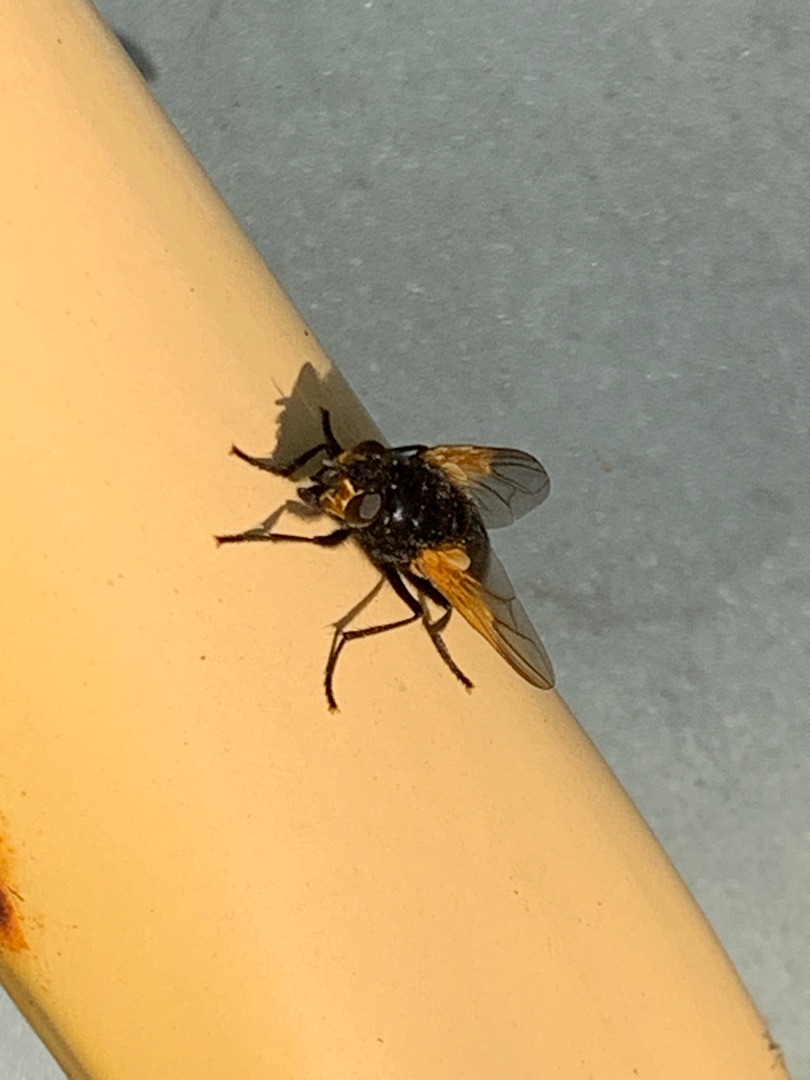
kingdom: Animalia
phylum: Arthropoda
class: Insecta
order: Diptera
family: Muscidae
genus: Mesembrina
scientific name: Mesembrina meridiana
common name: Gulvinget flue
